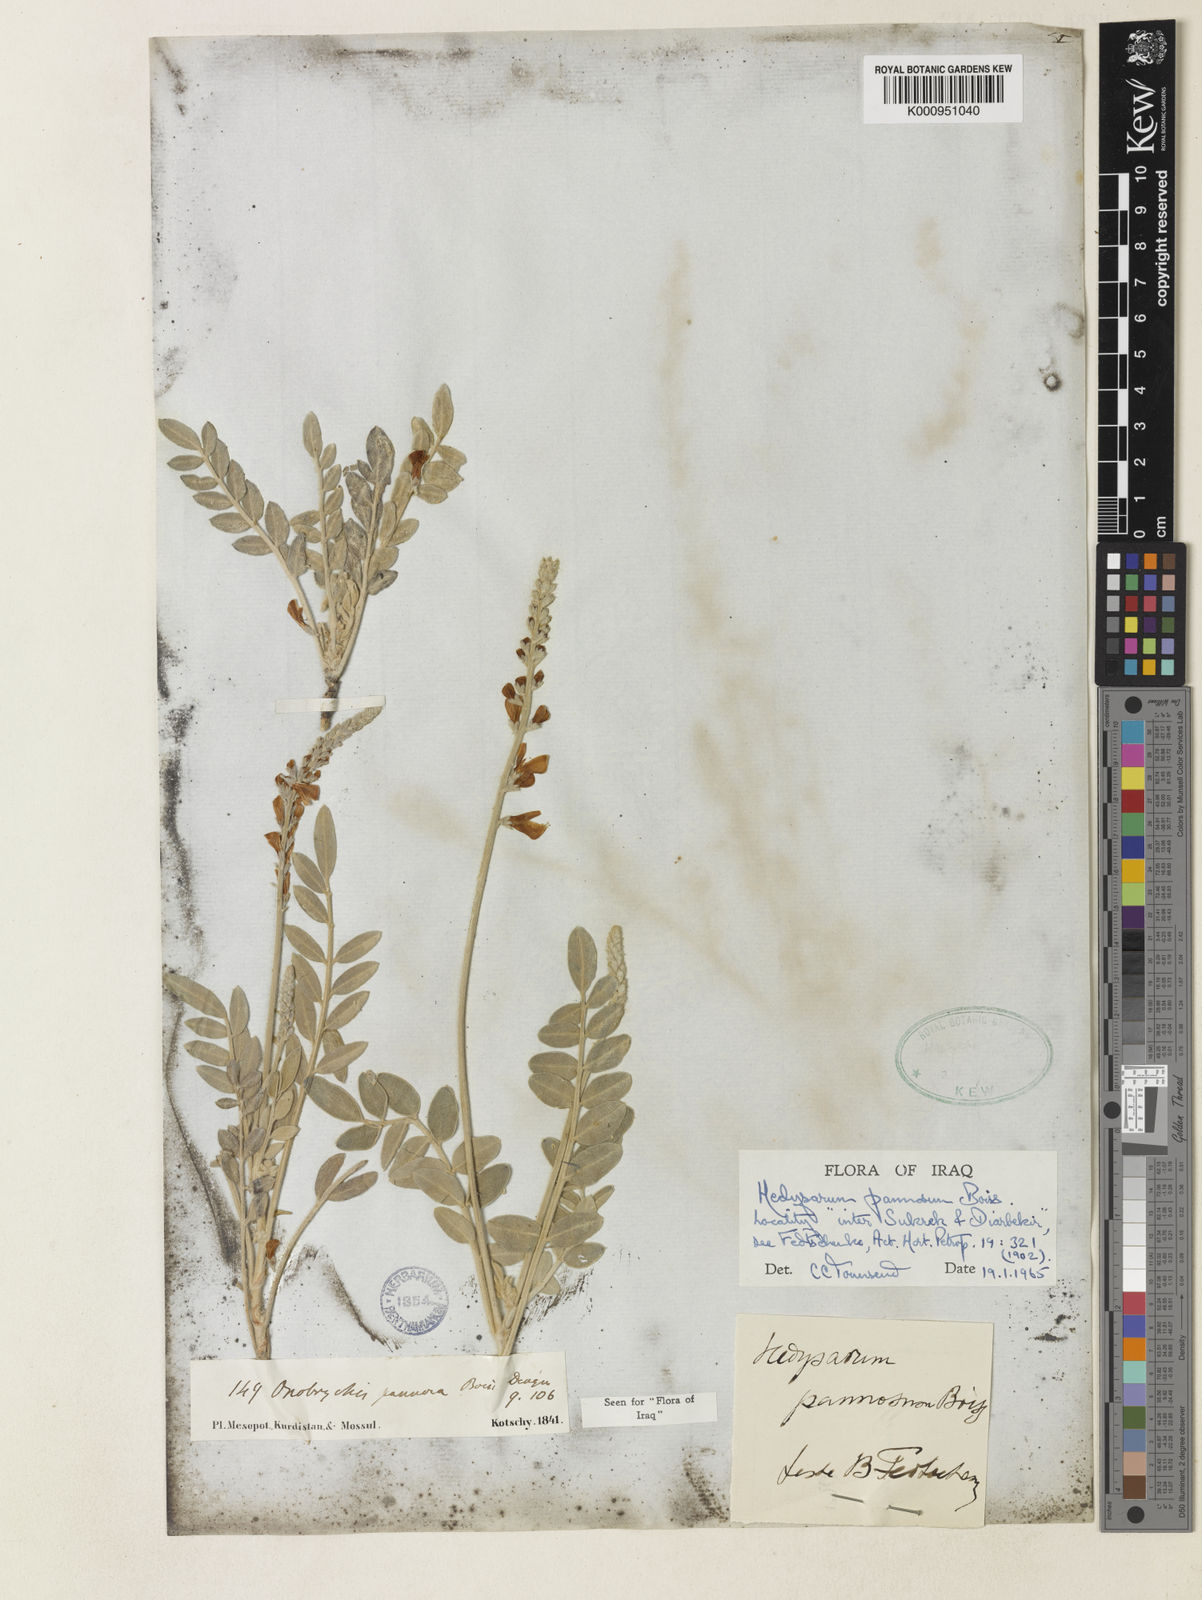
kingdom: Plantae
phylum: Tracheophyta
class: Magnoliopsida
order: Fabales
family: Fabaceae
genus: Hedysarum
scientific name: Hedysarum pannosum
